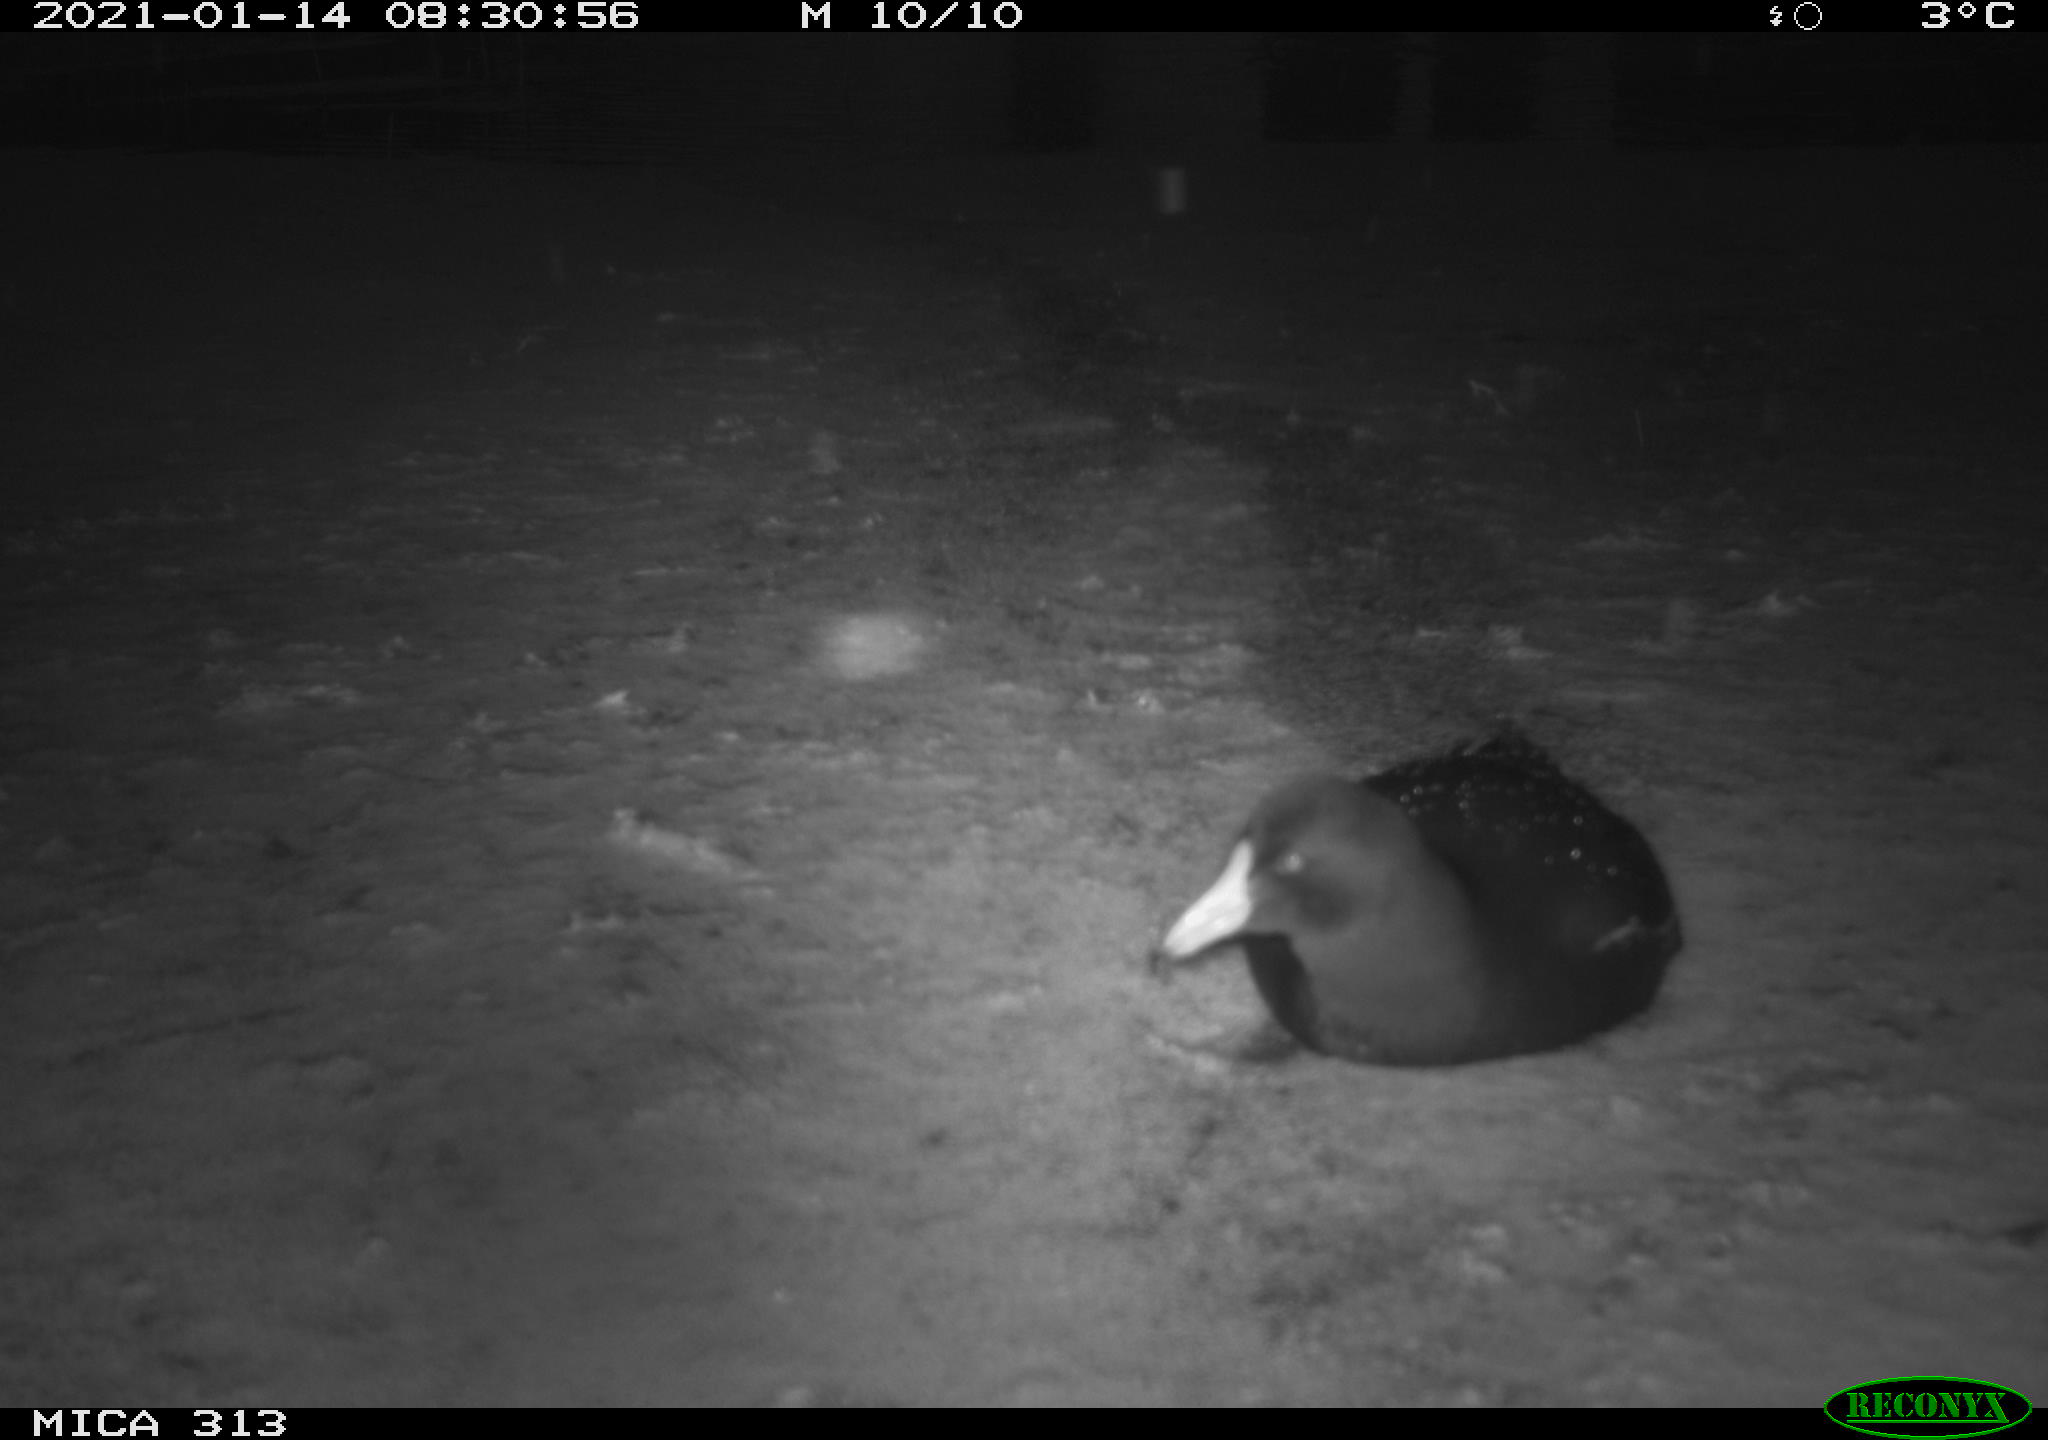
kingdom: Animalia
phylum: Chordata
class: Aves
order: Gruiformes
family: Rallidae
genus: Fulica
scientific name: Fulica atra
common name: Eurasian coot
